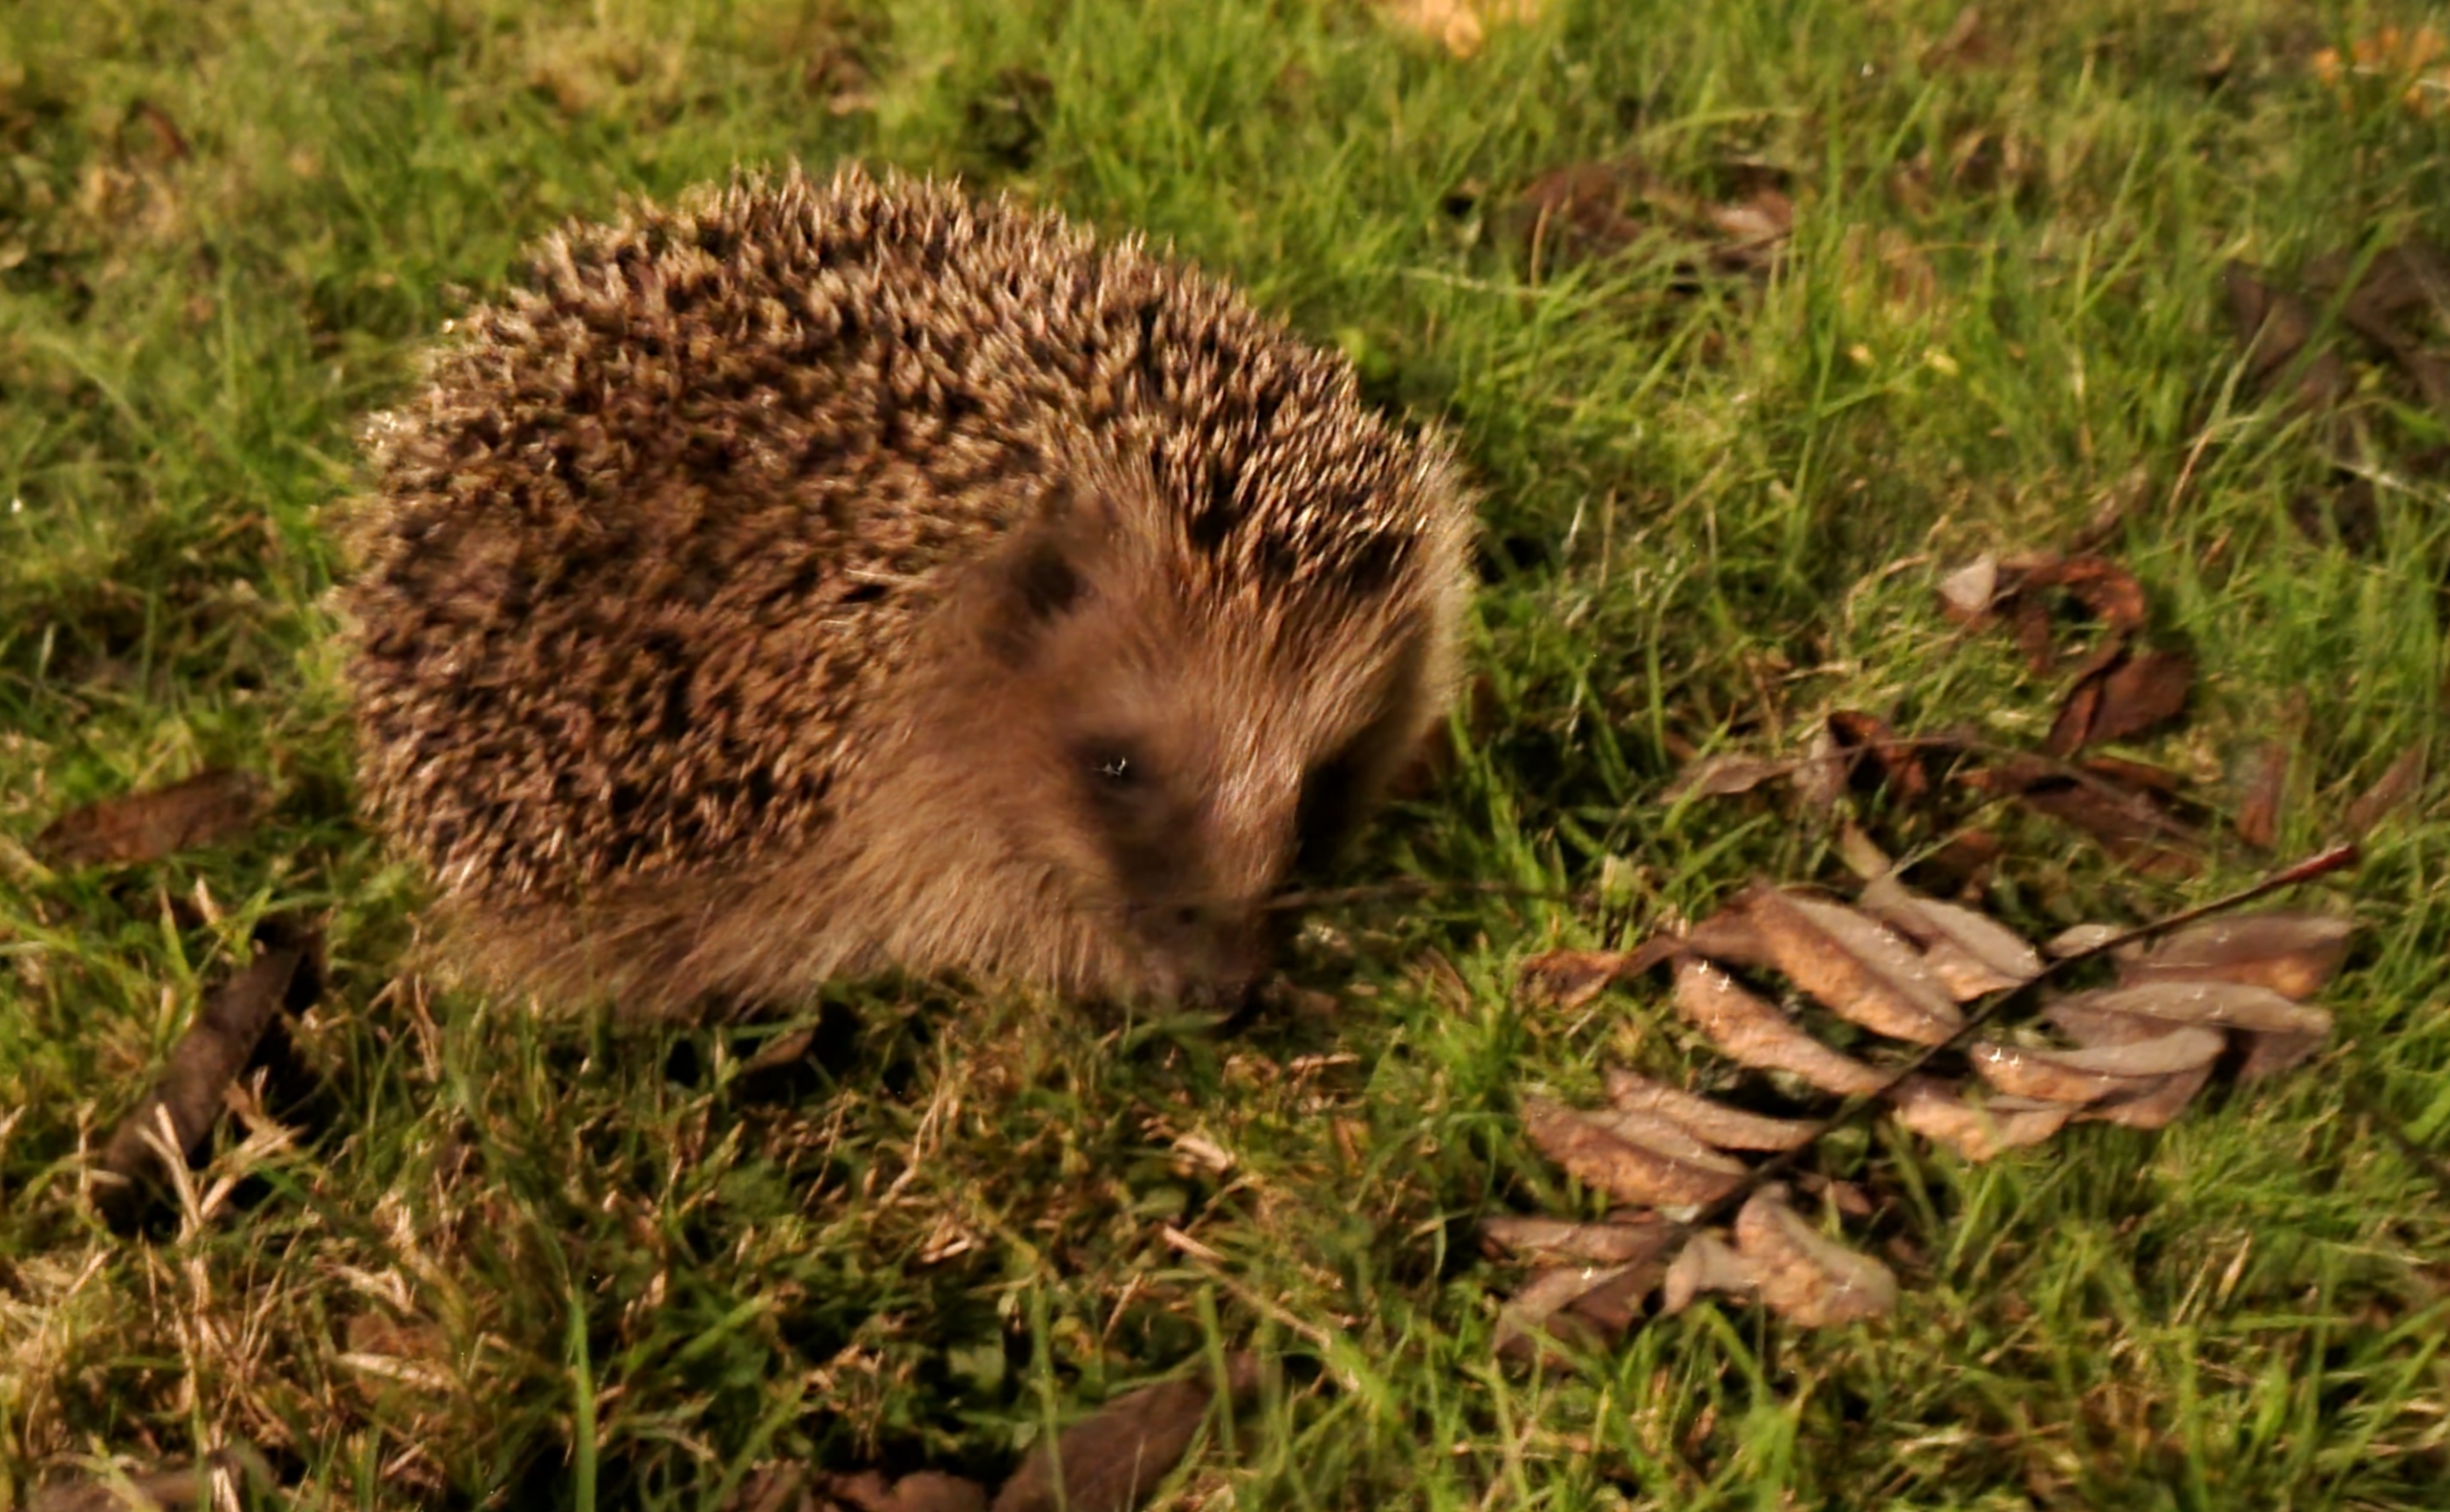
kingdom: Animalia
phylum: Chordata
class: Mammalia
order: Erinaceomorpha
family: Erinaceidae
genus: Erinaceus
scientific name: Erinaceus europaeus
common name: Pindsvin
